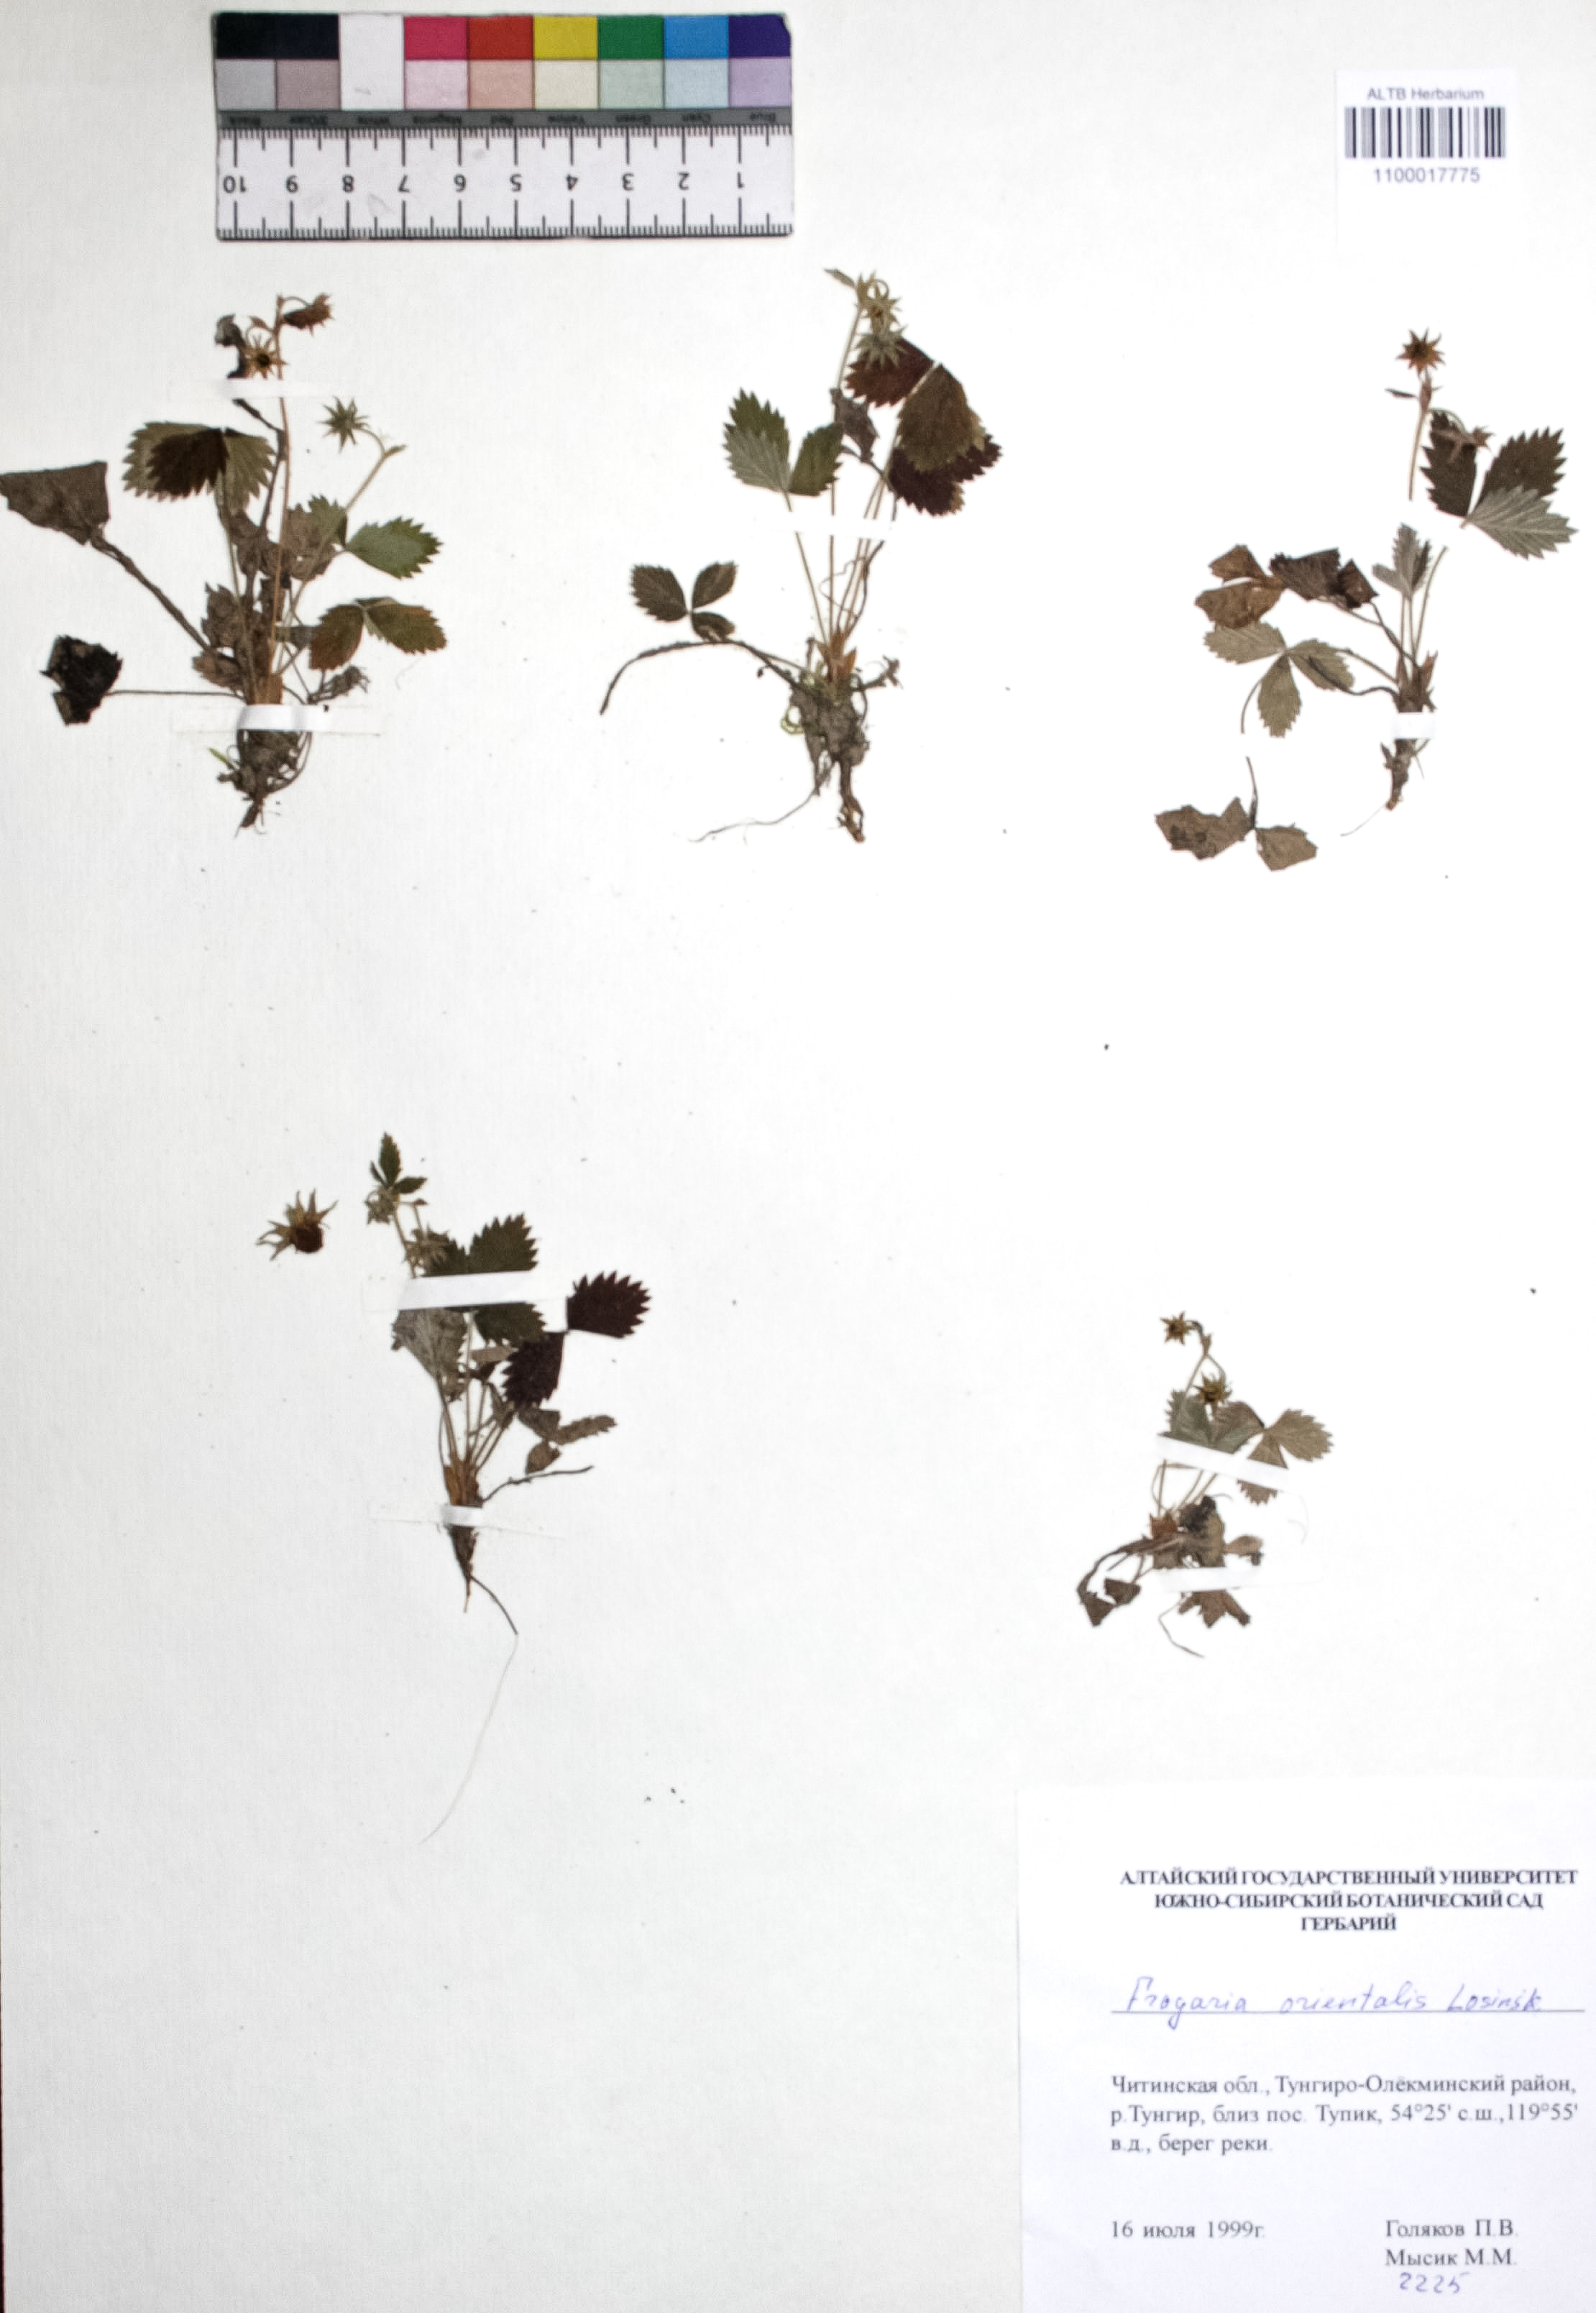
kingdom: Plantae
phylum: Tracheophyta
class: Magnoliopsida
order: Rosales
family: Rosaceae
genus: Fragaria
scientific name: Fragaria orientalis
